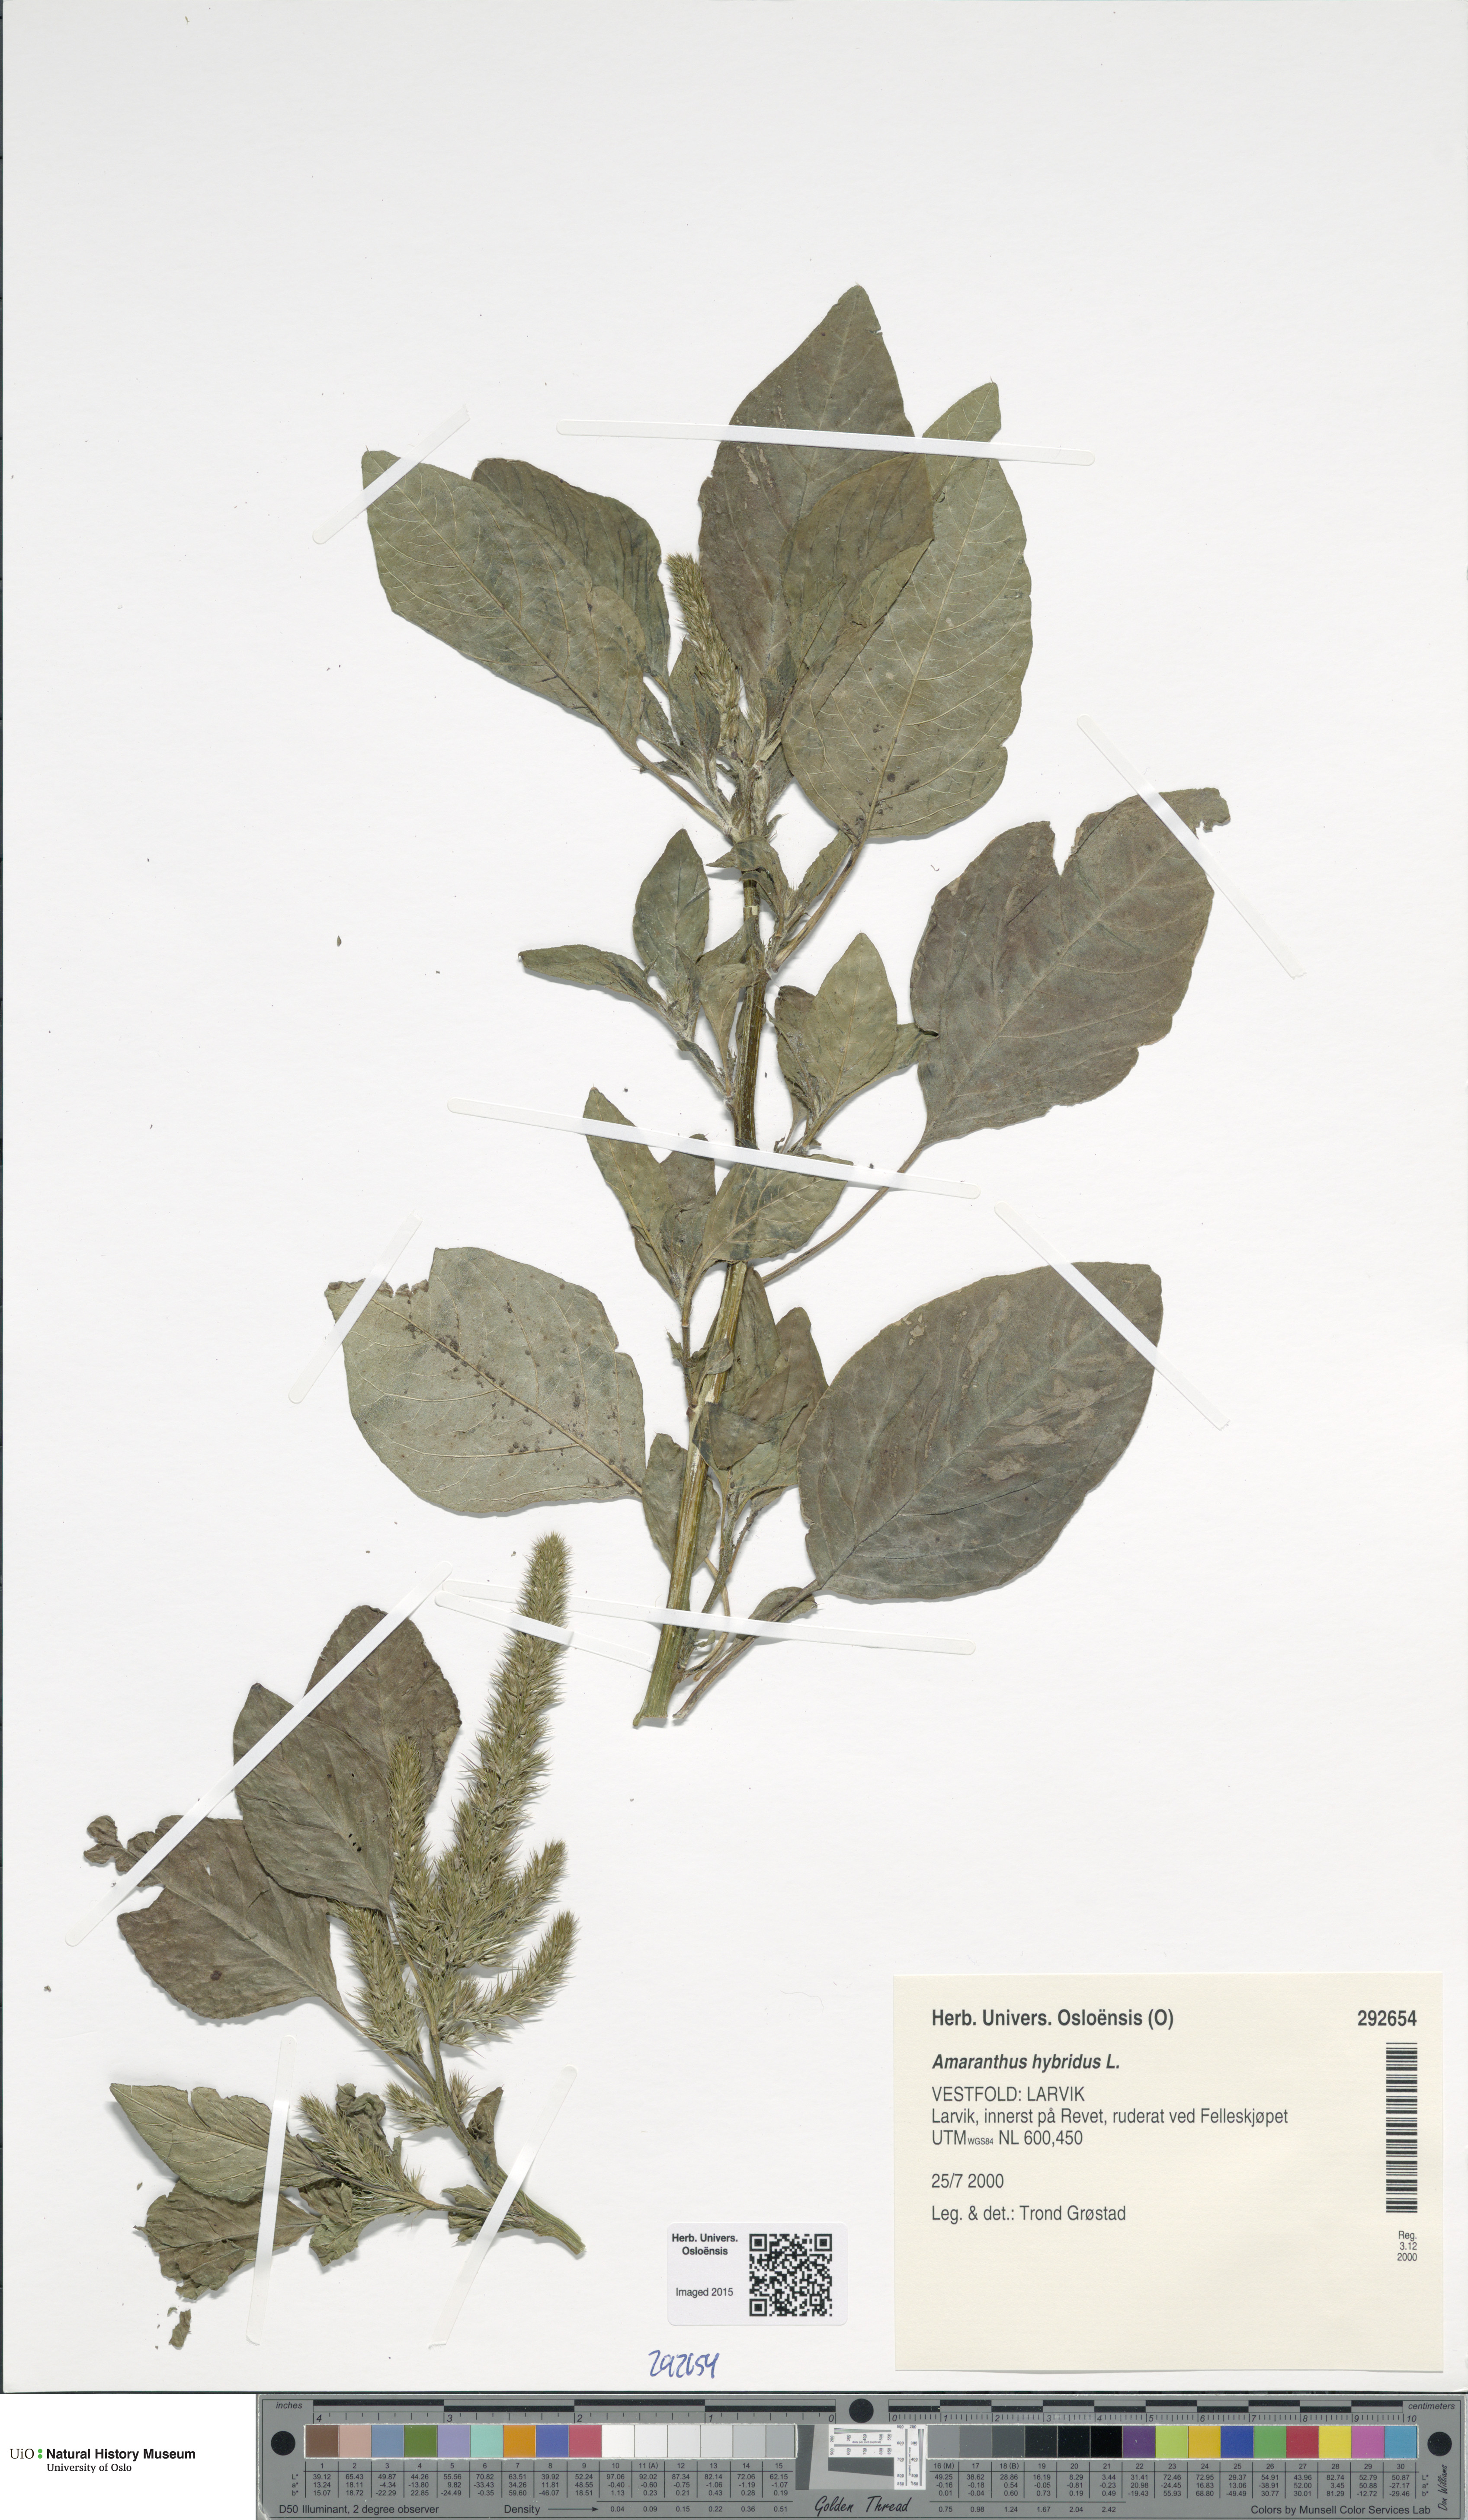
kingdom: Plantae
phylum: Tracheophyta
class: Magnoliopsida
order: Caryophyllales
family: Amaranthaceae
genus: Amaranthus
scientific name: Amaranthus hybridus
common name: Green amaranth
